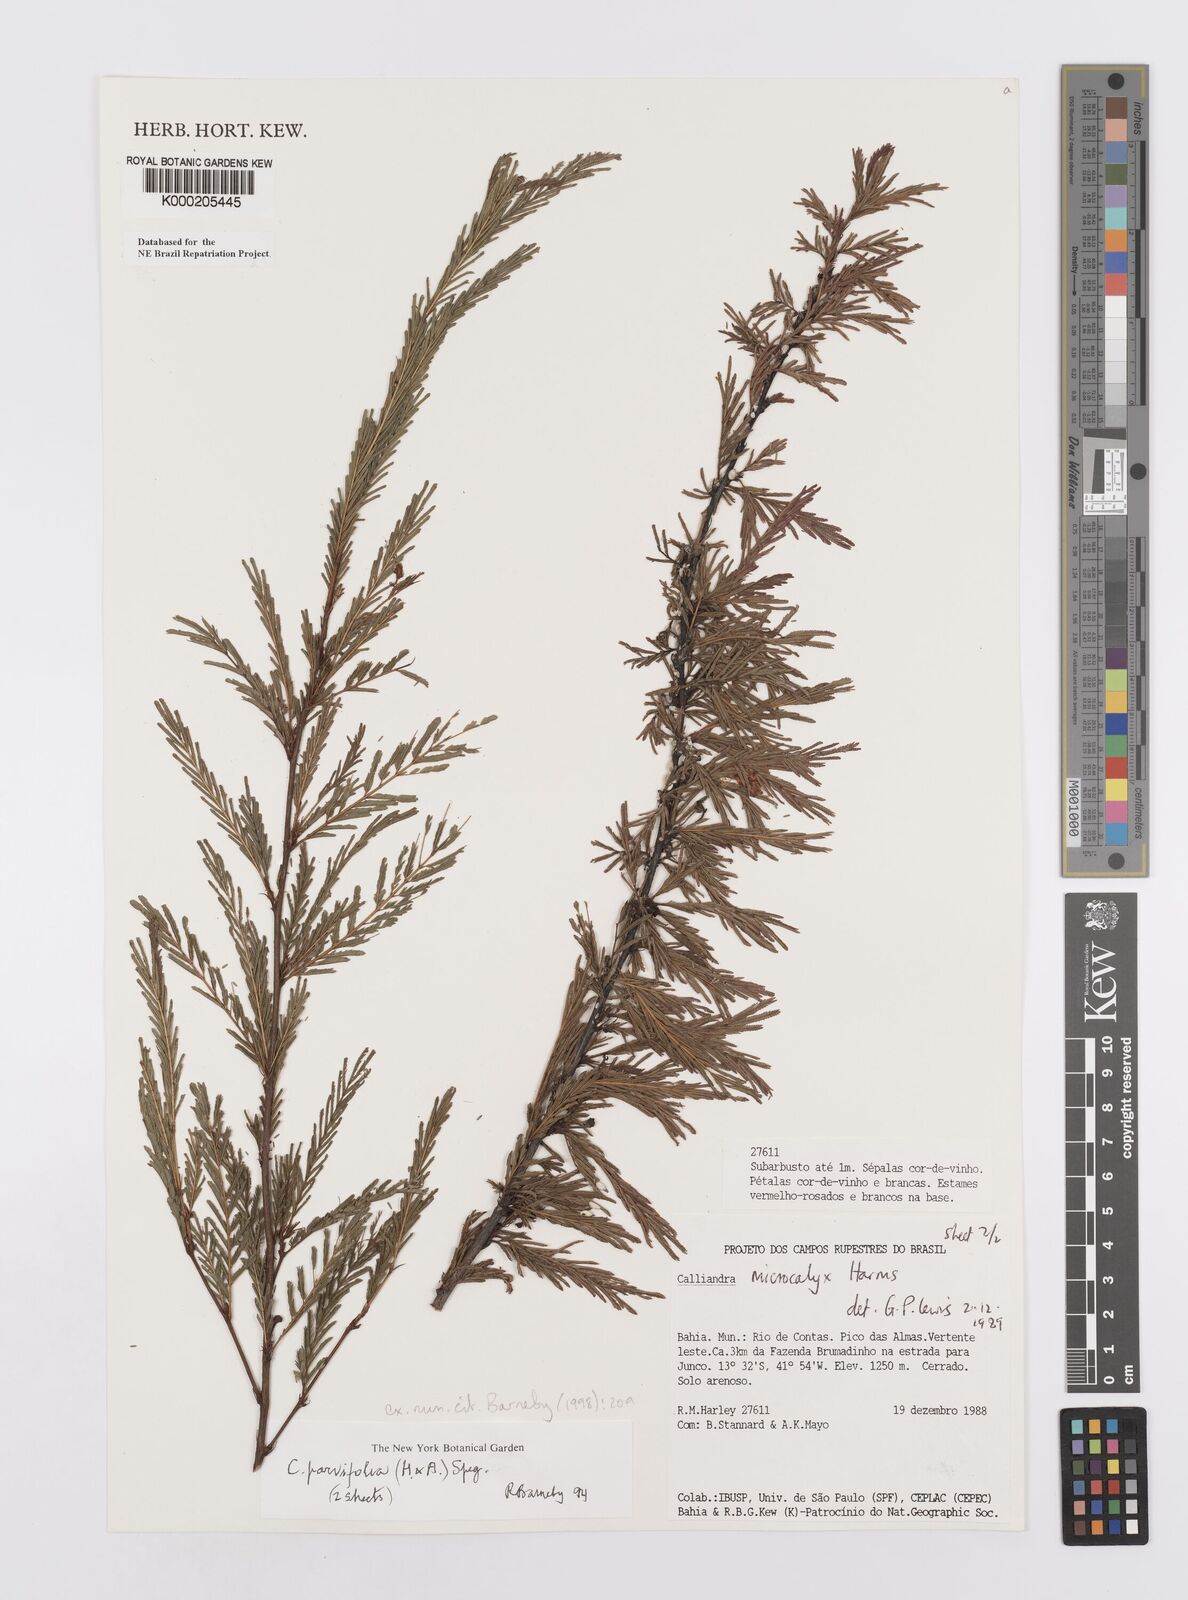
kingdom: Plantae
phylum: Tracheophyta
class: Magnoliopsida
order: Fabales
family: Fabaceae
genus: Calliandra
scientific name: Calliandra parvifolia
